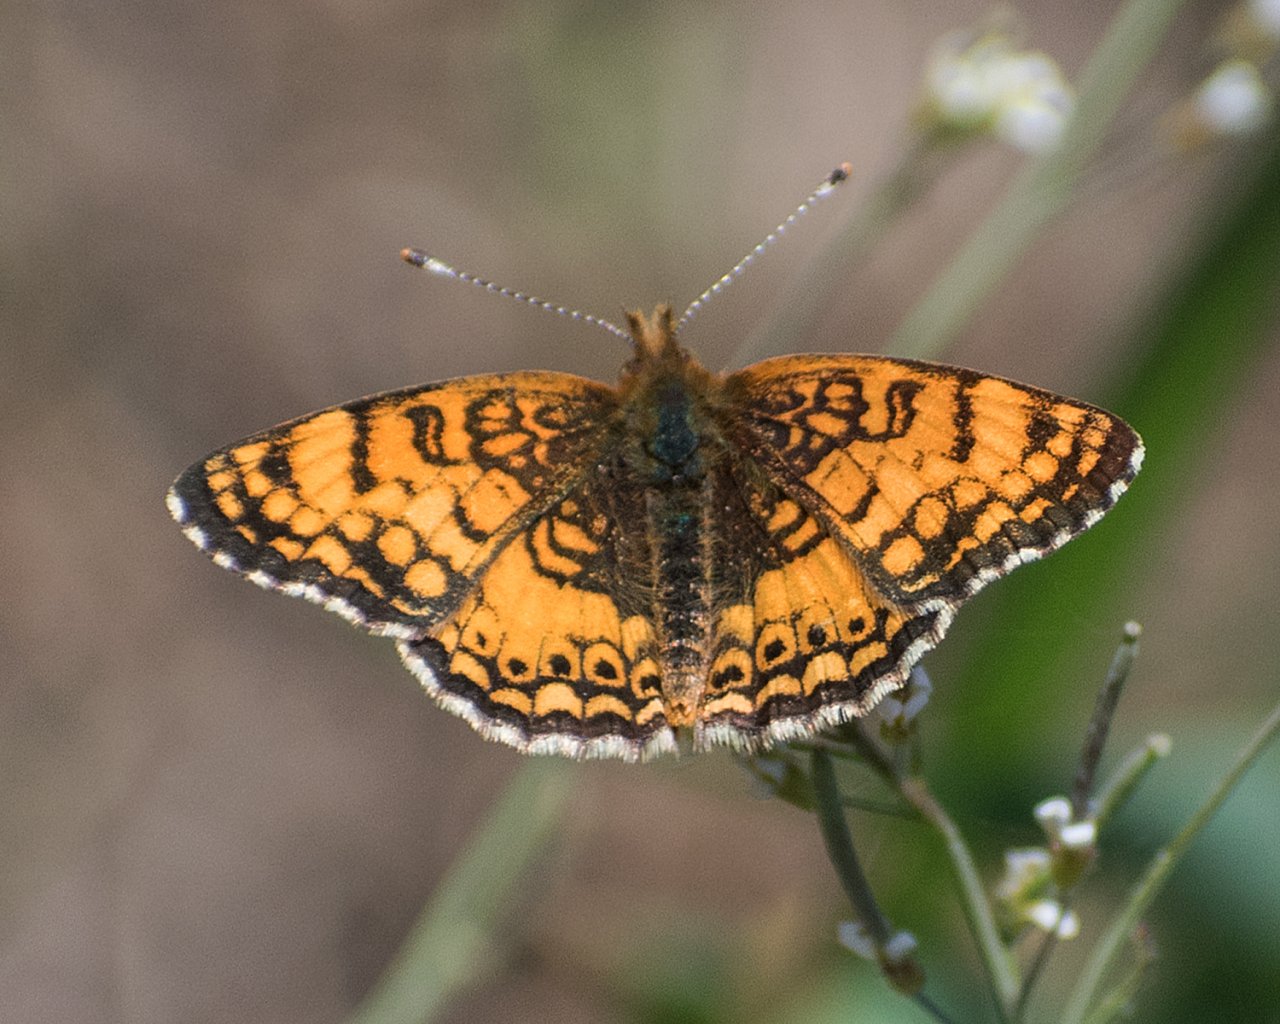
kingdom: Animalia
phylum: Arthropoda
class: Insecta
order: Lepidoptera
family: Nymphalidae
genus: Eresia
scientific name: Eresia aveyrona
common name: Mylitta Crescent
